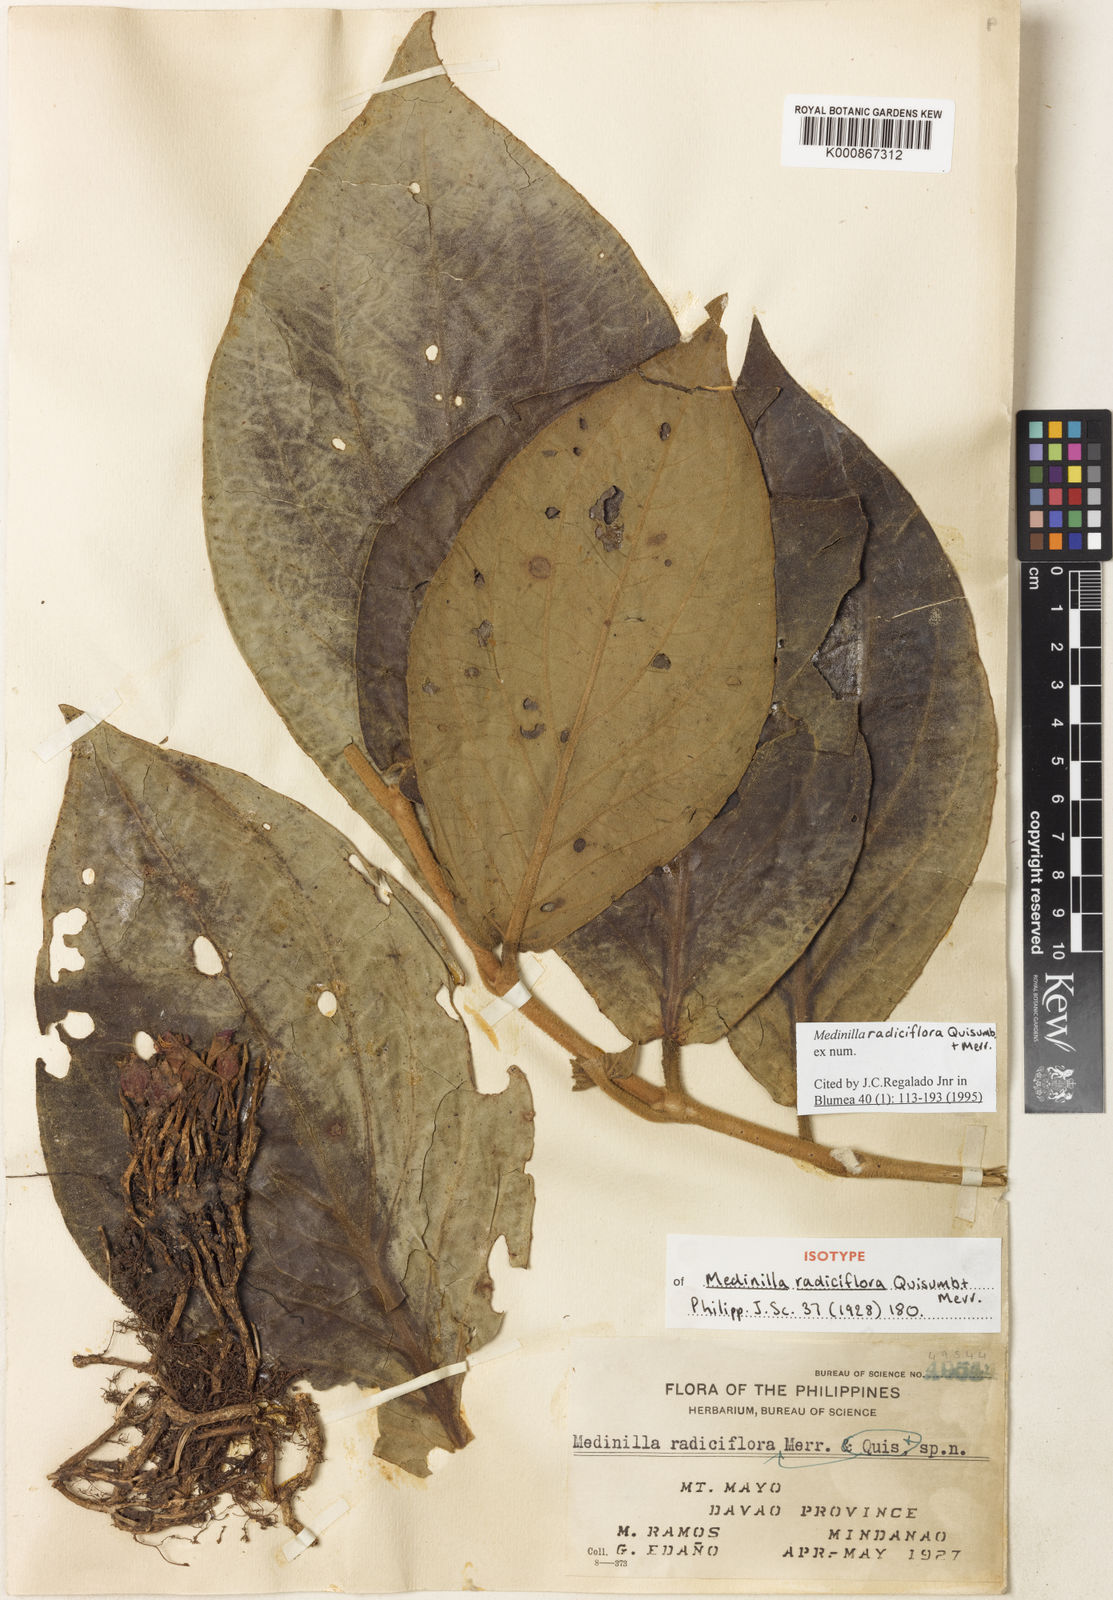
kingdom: Plantae
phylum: Tracheophyta
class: Magnoliopsida
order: Myrtales
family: Melastomataceae
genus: Medinilla
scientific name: Medinilla radiciflora
